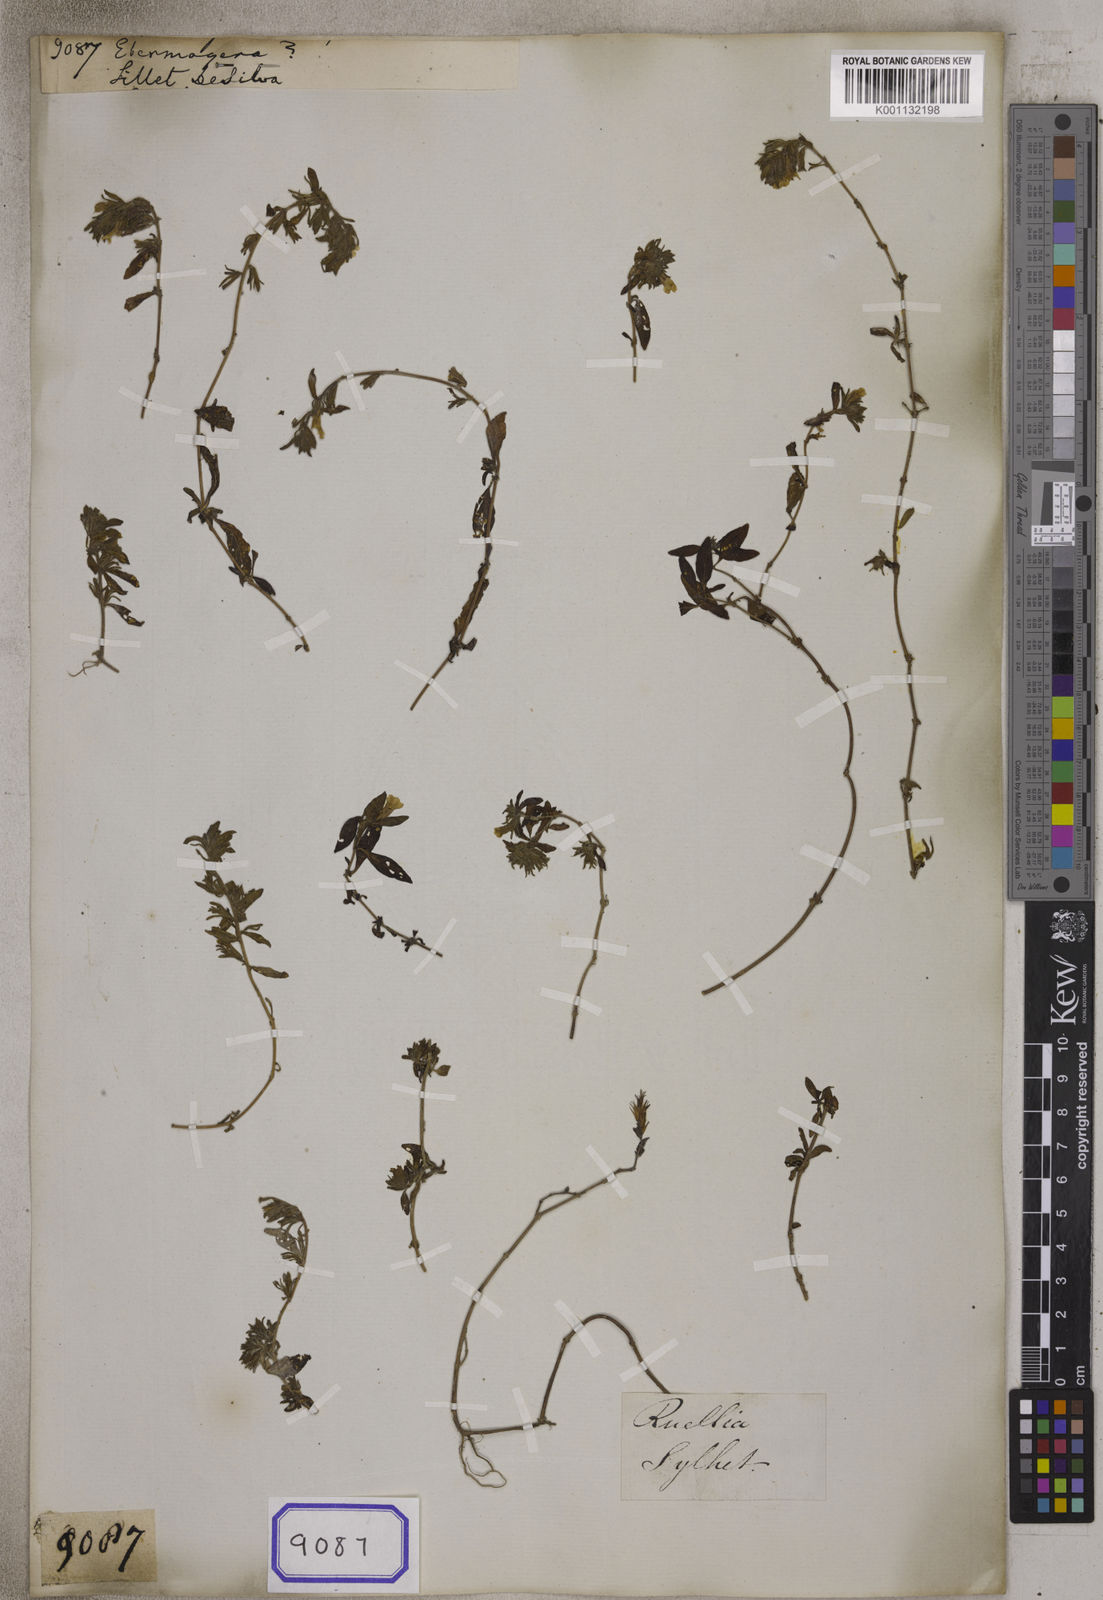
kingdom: Plantae
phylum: Tracheophyta
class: Magnoliopsida
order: Lamiales
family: Acanthaceae
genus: Staurogyne
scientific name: Staurogyne
